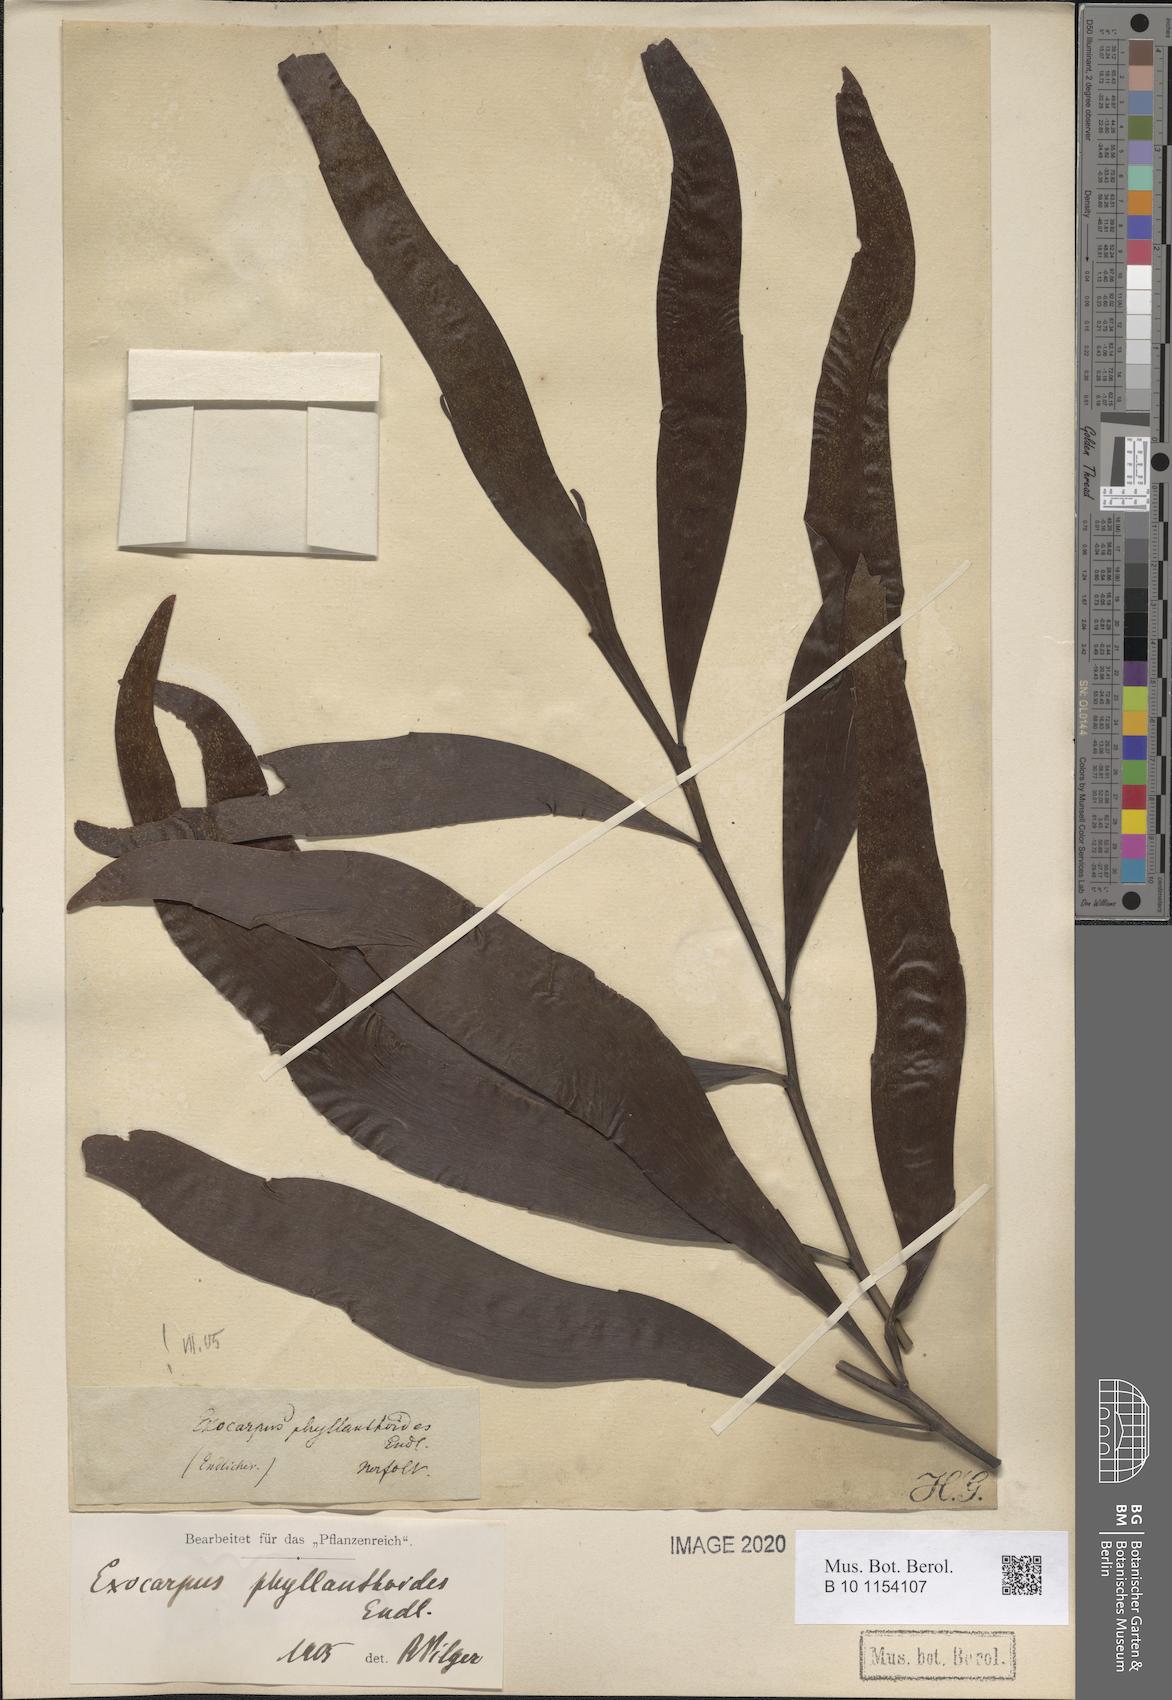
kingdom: Plantae
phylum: Tracheophyta
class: Magnoliopsida
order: Santalales
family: Santalaceae
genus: Exocarpos
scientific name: Exocarpos phyllanthoides
